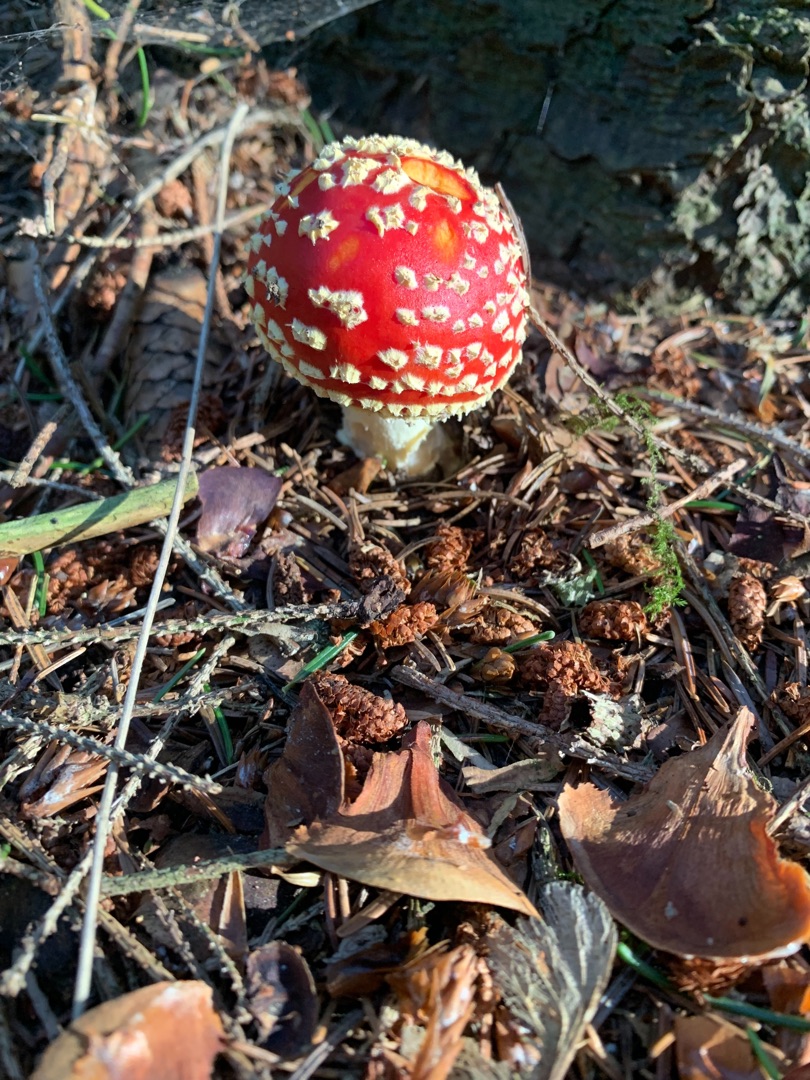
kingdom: Fungi
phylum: Basidiomycota
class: Agaricomycetes
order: Agaricales
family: Amanitaceae
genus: Amanita
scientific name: Amanita muscaria
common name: Rød fluesvamp
